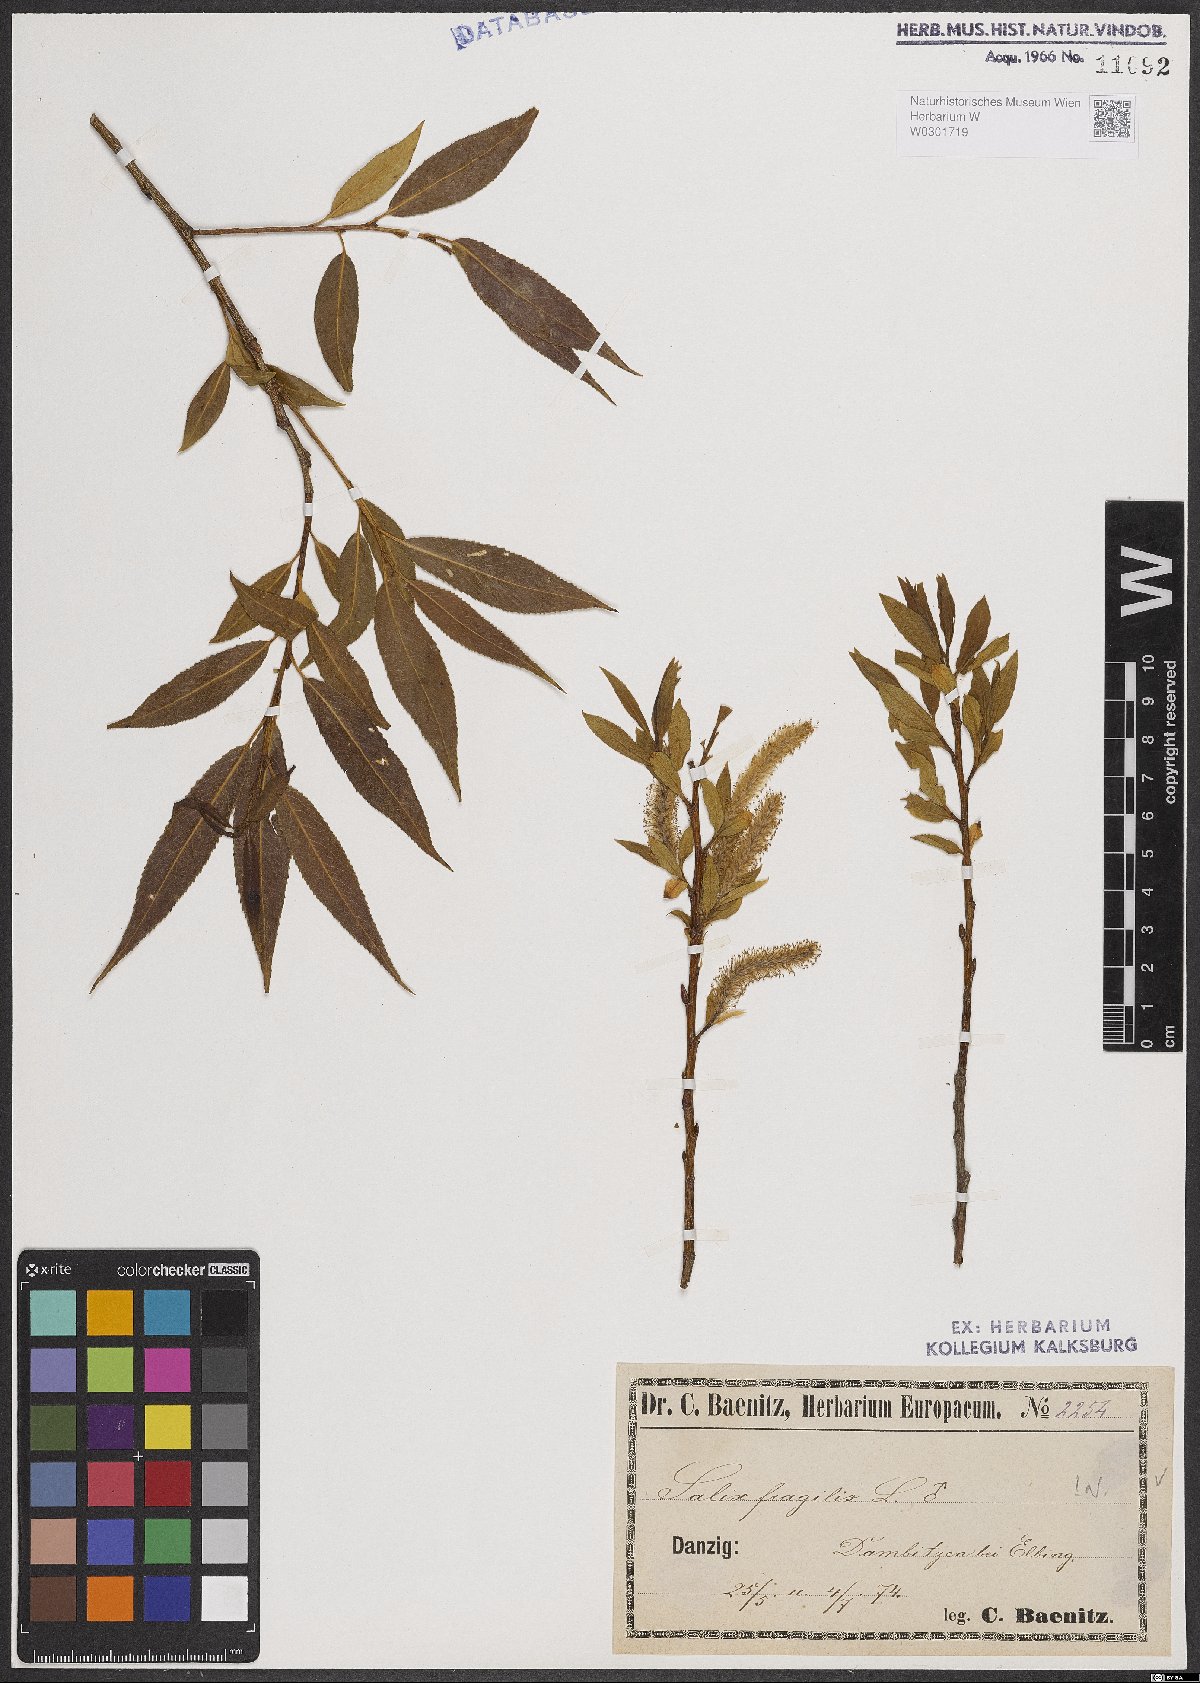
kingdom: Plantae
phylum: Tracheophyta
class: Magnoliopsida
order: Malpighiales
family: Salicaceae
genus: Salix
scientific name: Salix fragilis
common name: Crack willow
